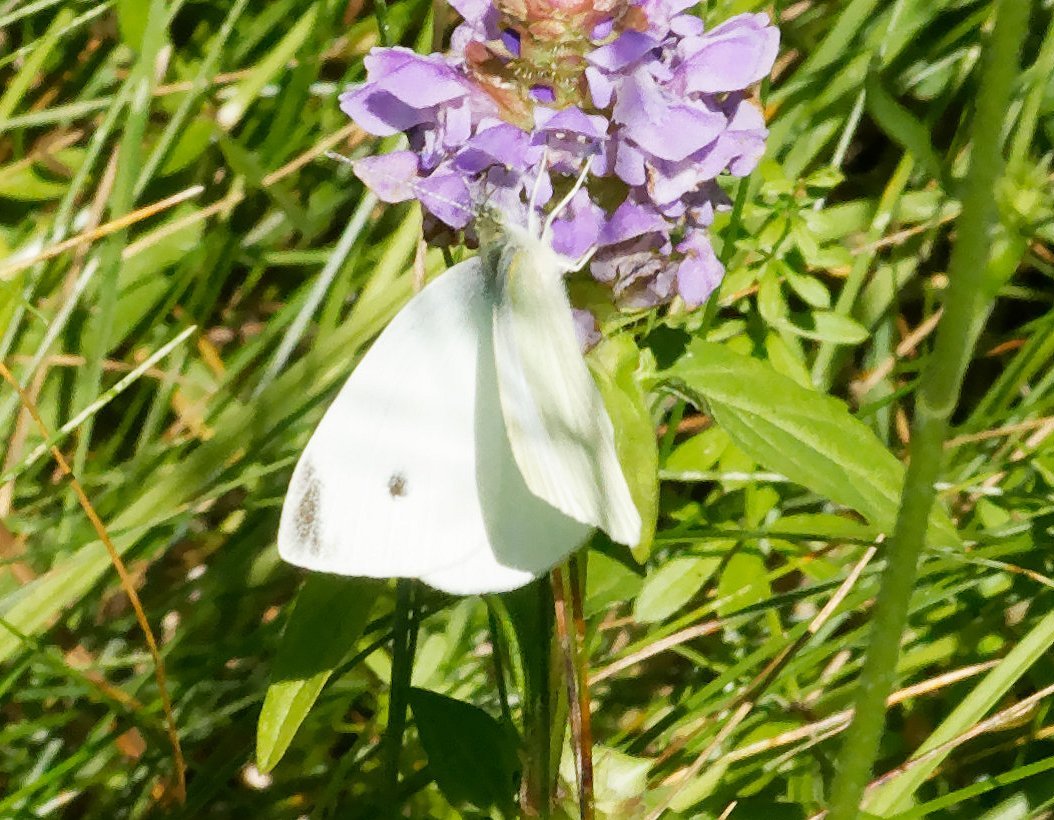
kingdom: Animalia
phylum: Arthropoda
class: Insecta
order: Lepidoptera
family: Pieridae
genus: Pieris
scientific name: Pieris rapae
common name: Cabbage White
